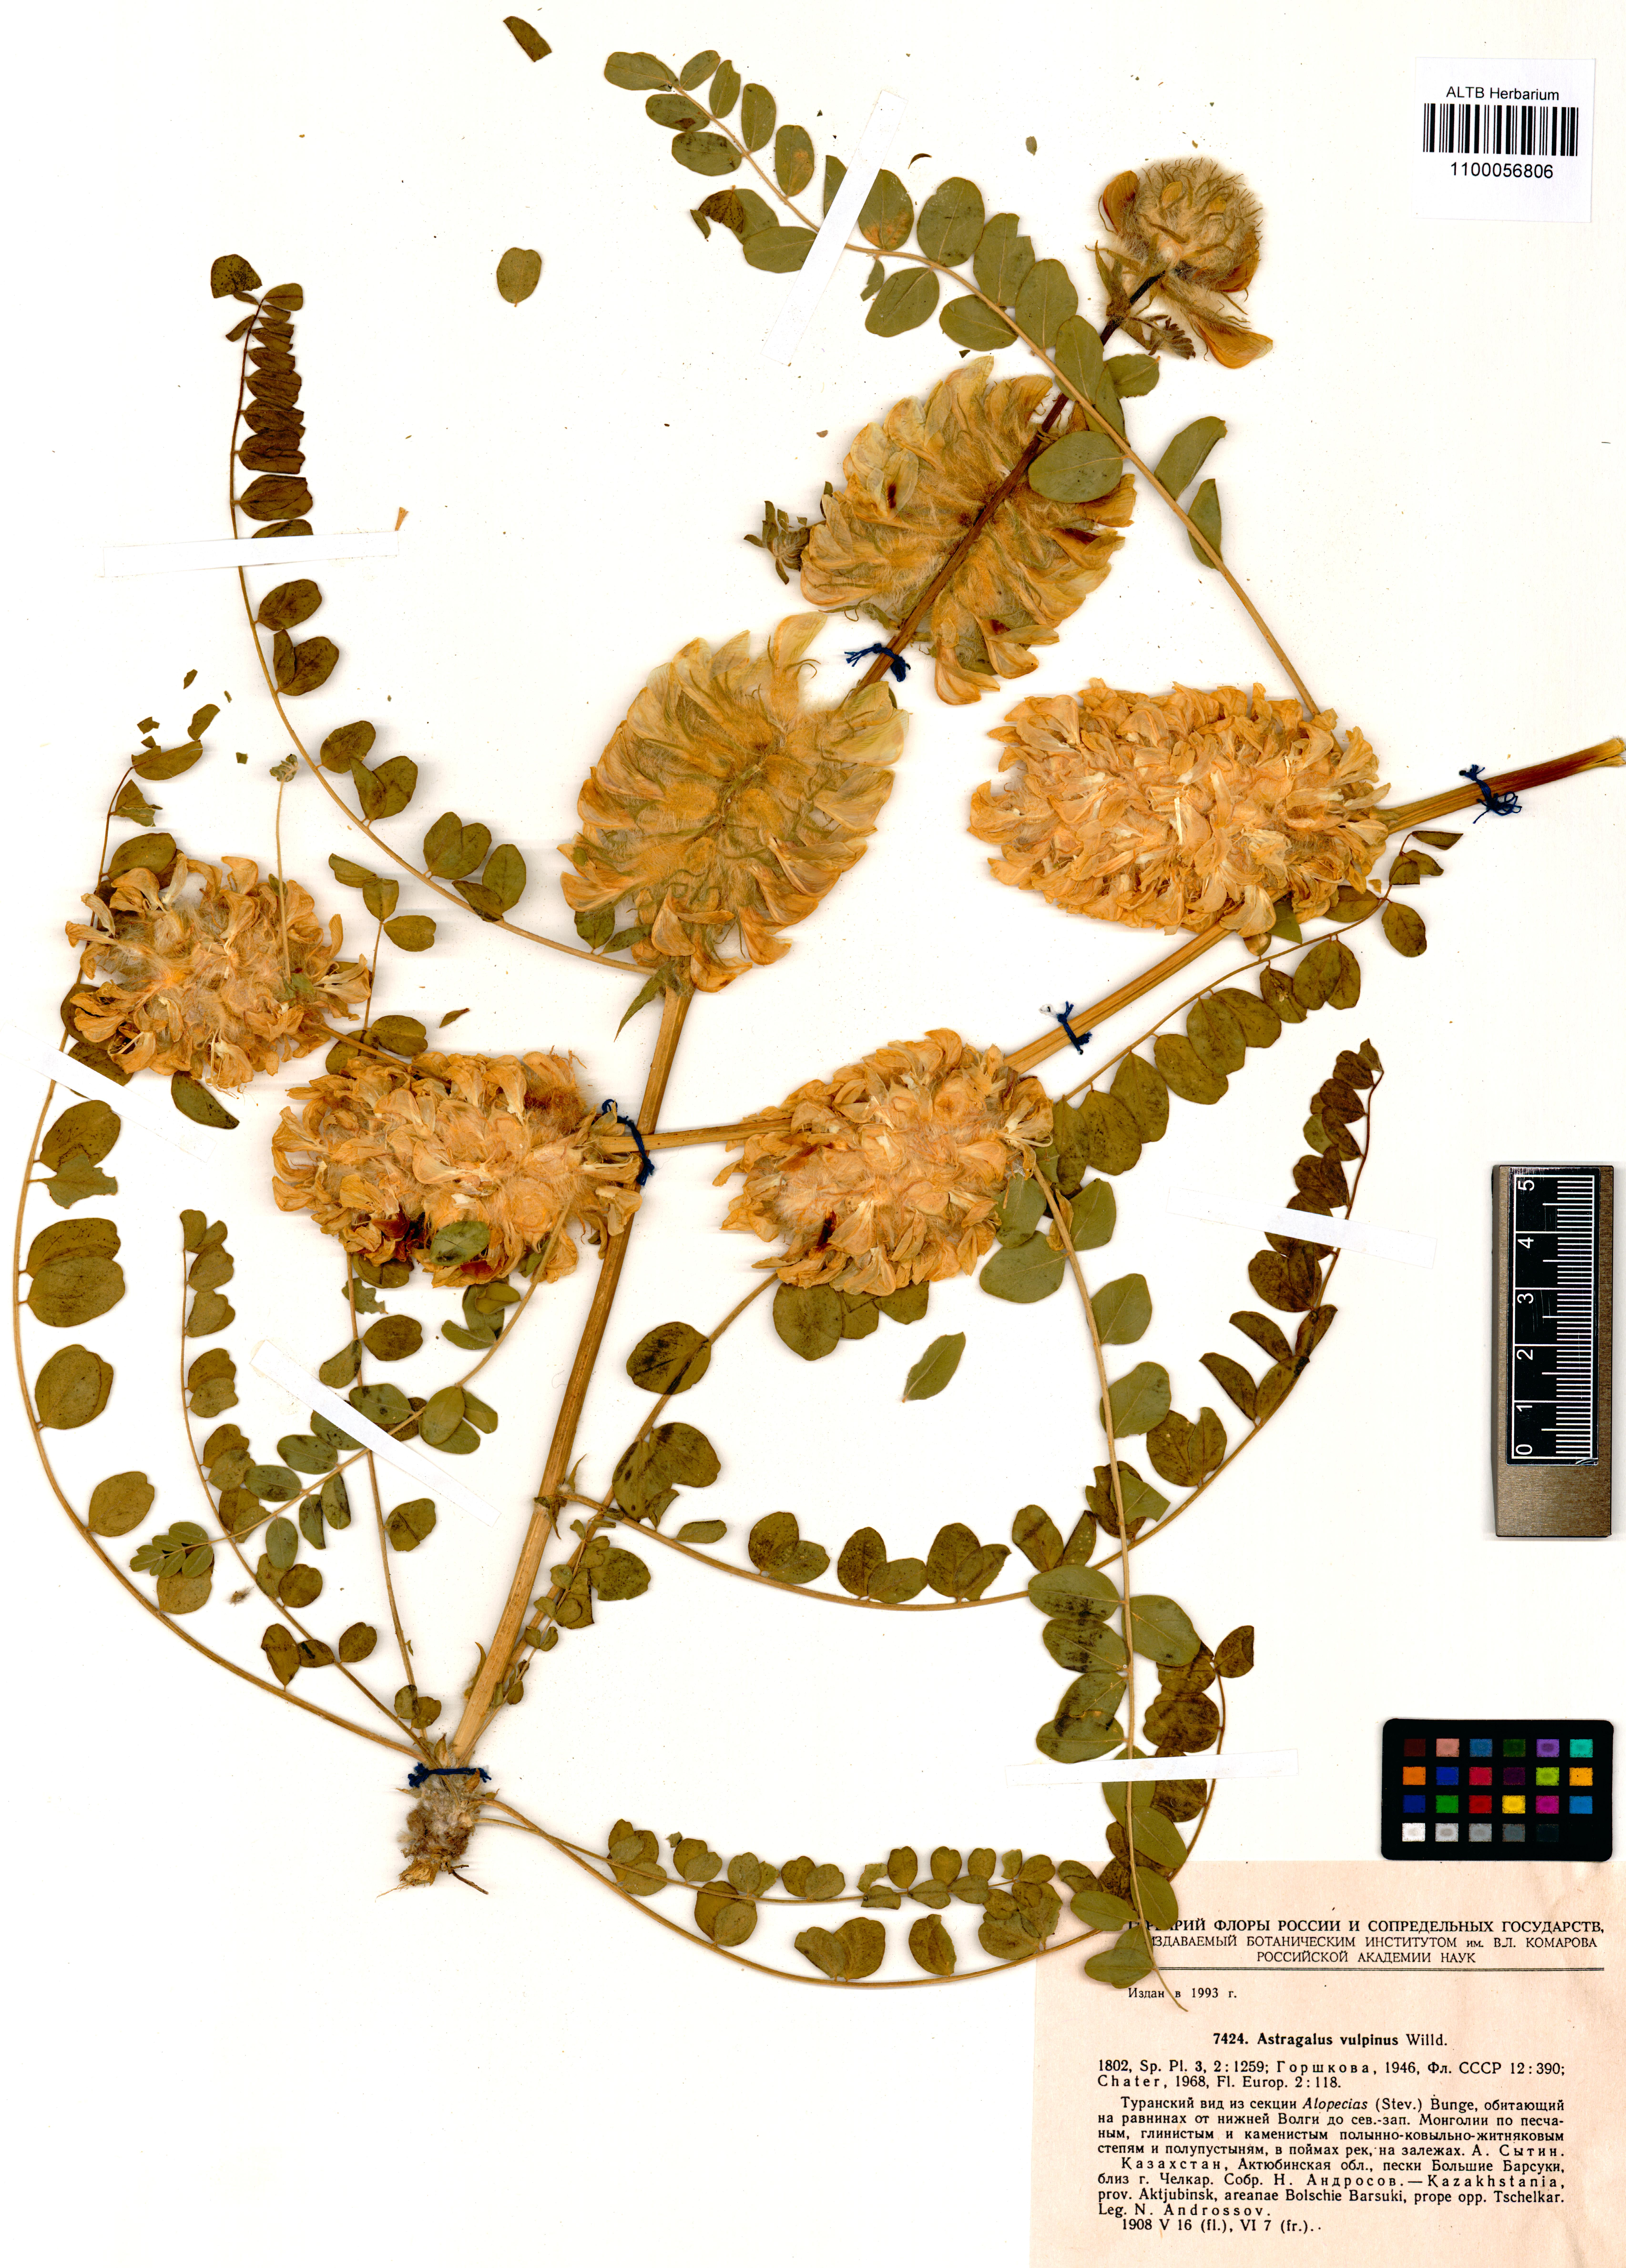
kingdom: Plantae
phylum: Tracheophyta
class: Magnoliopsida
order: Fabales
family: Fabaceae
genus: Astragalus
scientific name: Astragalus vulpinus
